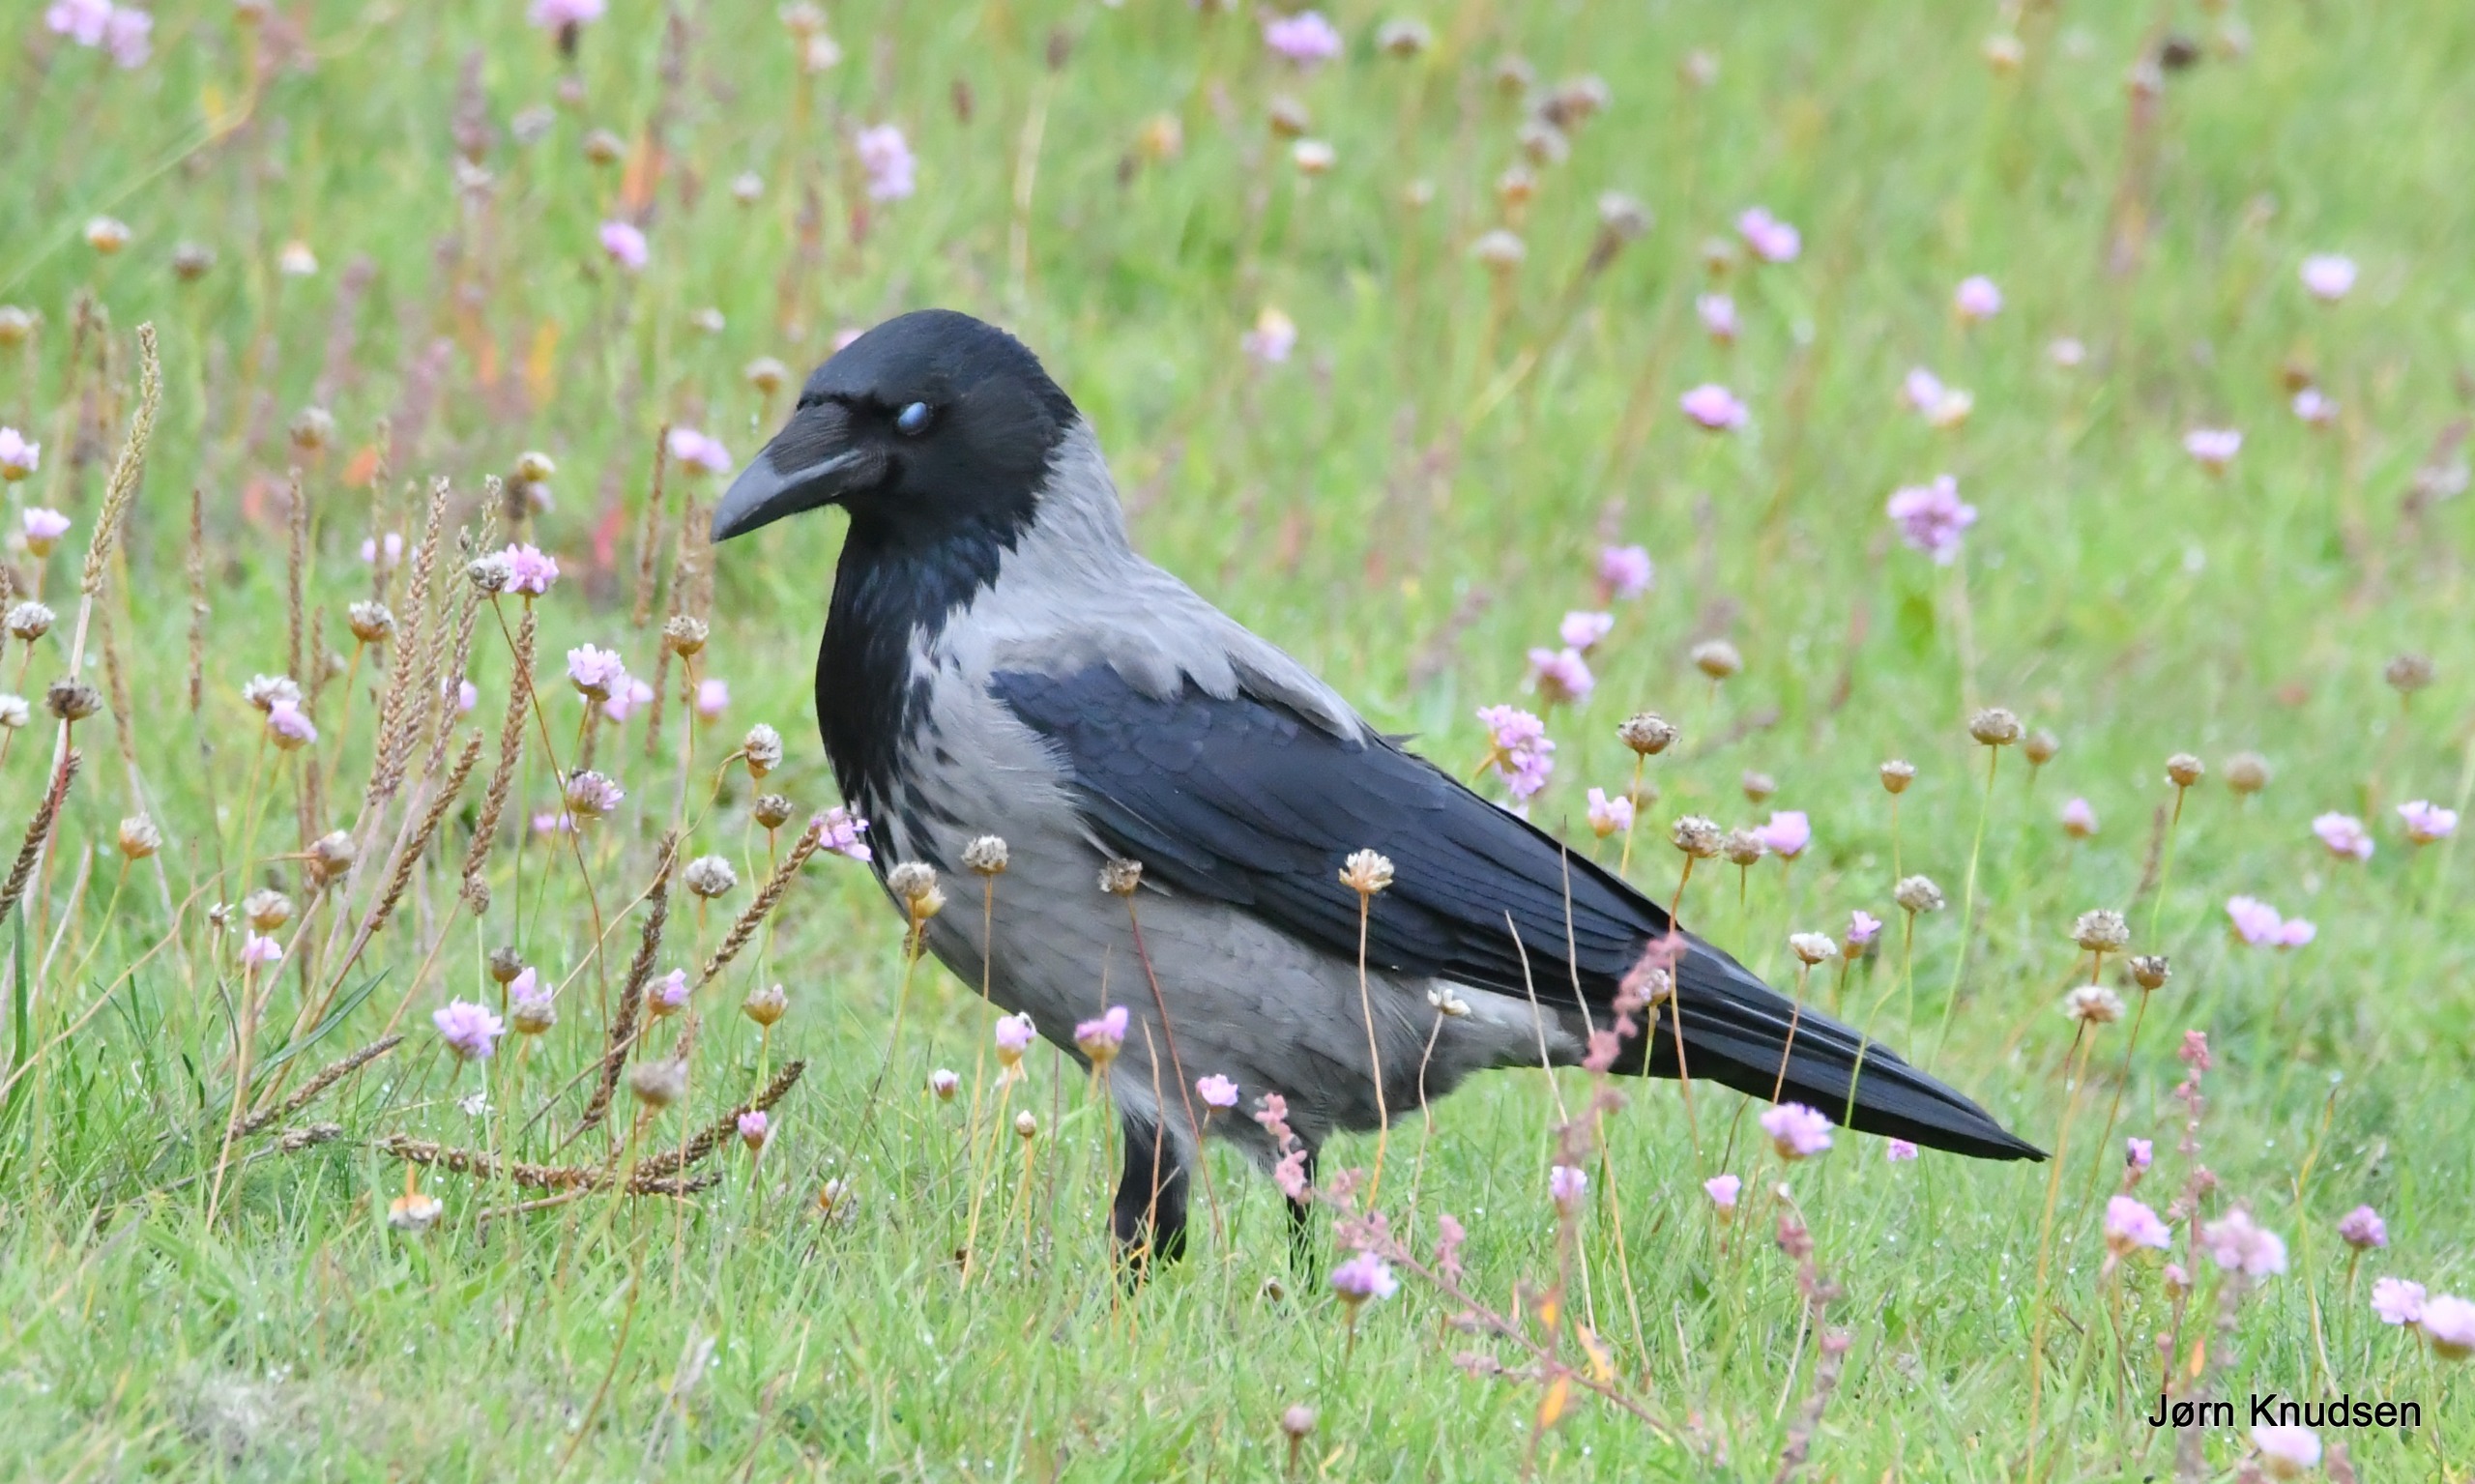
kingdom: Animalia
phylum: Chordata
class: Aves
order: Passeriformes
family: Corvidae
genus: Corvus
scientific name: Corvus cornix
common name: Gråkrage
